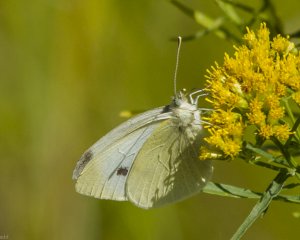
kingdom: Animalia
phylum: Arthropoda
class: Insecta
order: Lepidoptera
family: Pieridae
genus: Pieris
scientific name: Pieris rapae
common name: Cabbage White
